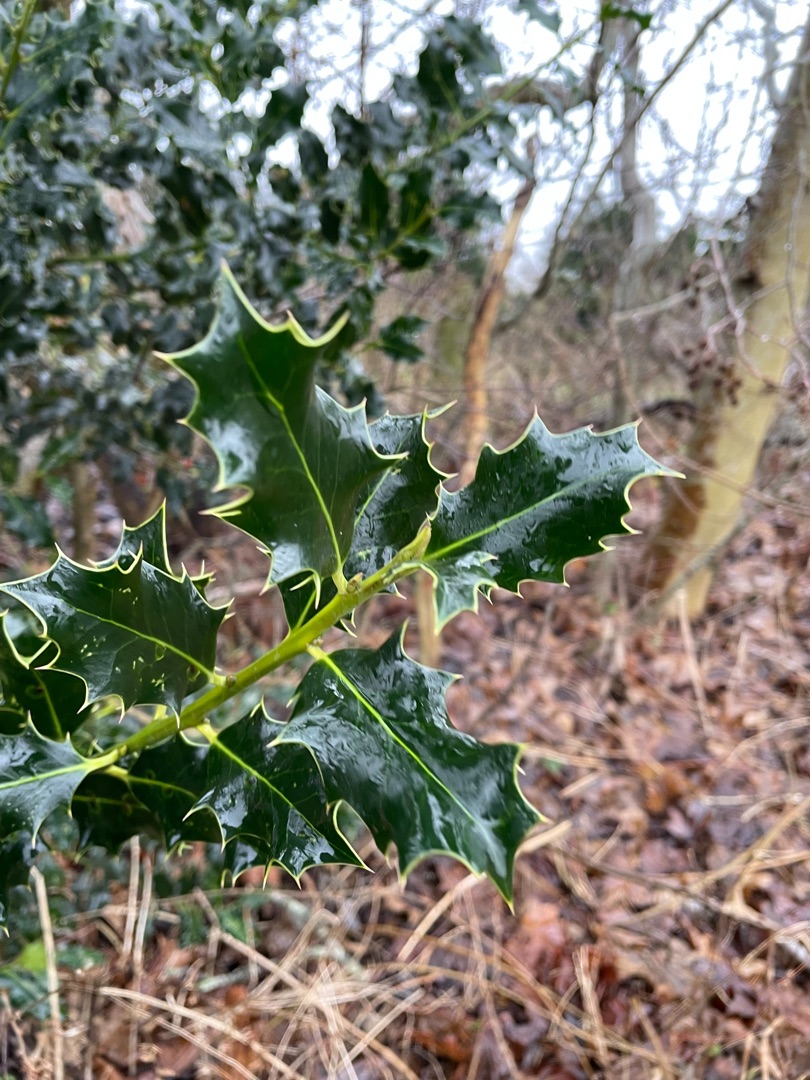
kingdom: Plantae
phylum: Tracheophyta
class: Magnoliopsida
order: Aquifoliales
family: Aquifoliaceae
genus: Ilex
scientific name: Ilex aquifolium
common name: Kristtorn
